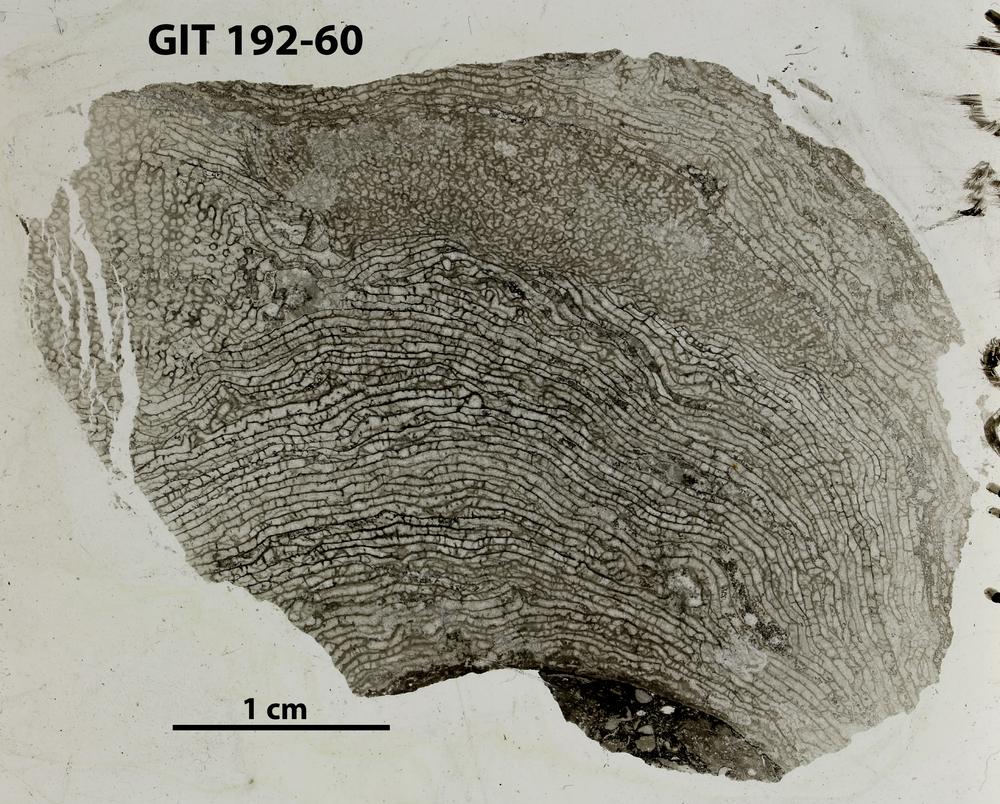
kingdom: Animalia
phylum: Porifera
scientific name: Porifera
